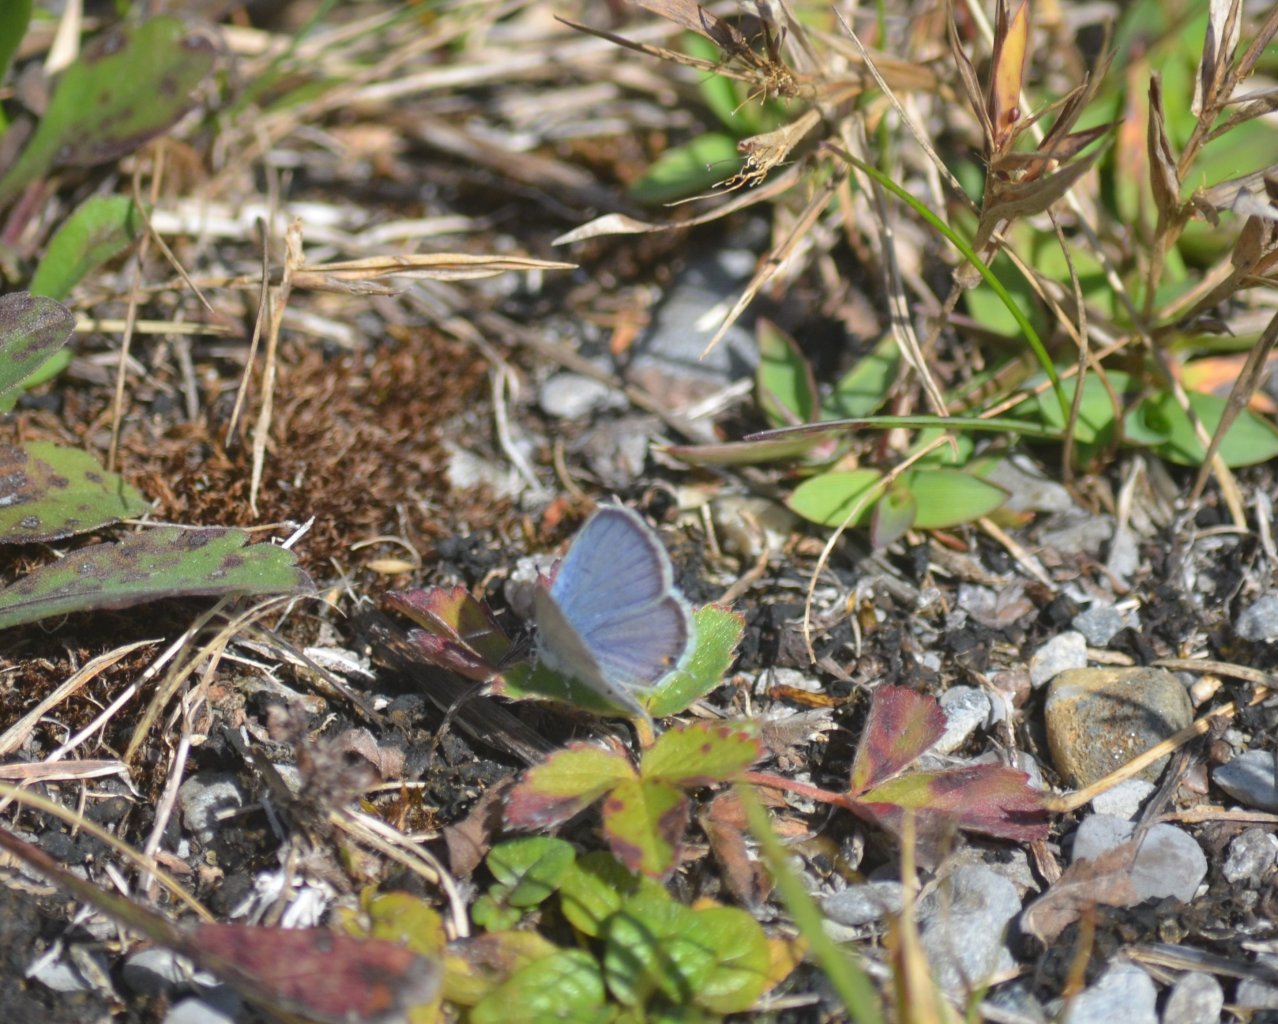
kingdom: Animalia
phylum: Arthropoda
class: Insecta
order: Lepidoptera
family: Lycaenidae
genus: Elkalyce
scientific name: Elkalyce comyntas
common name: Eastern Tailed-Blue
